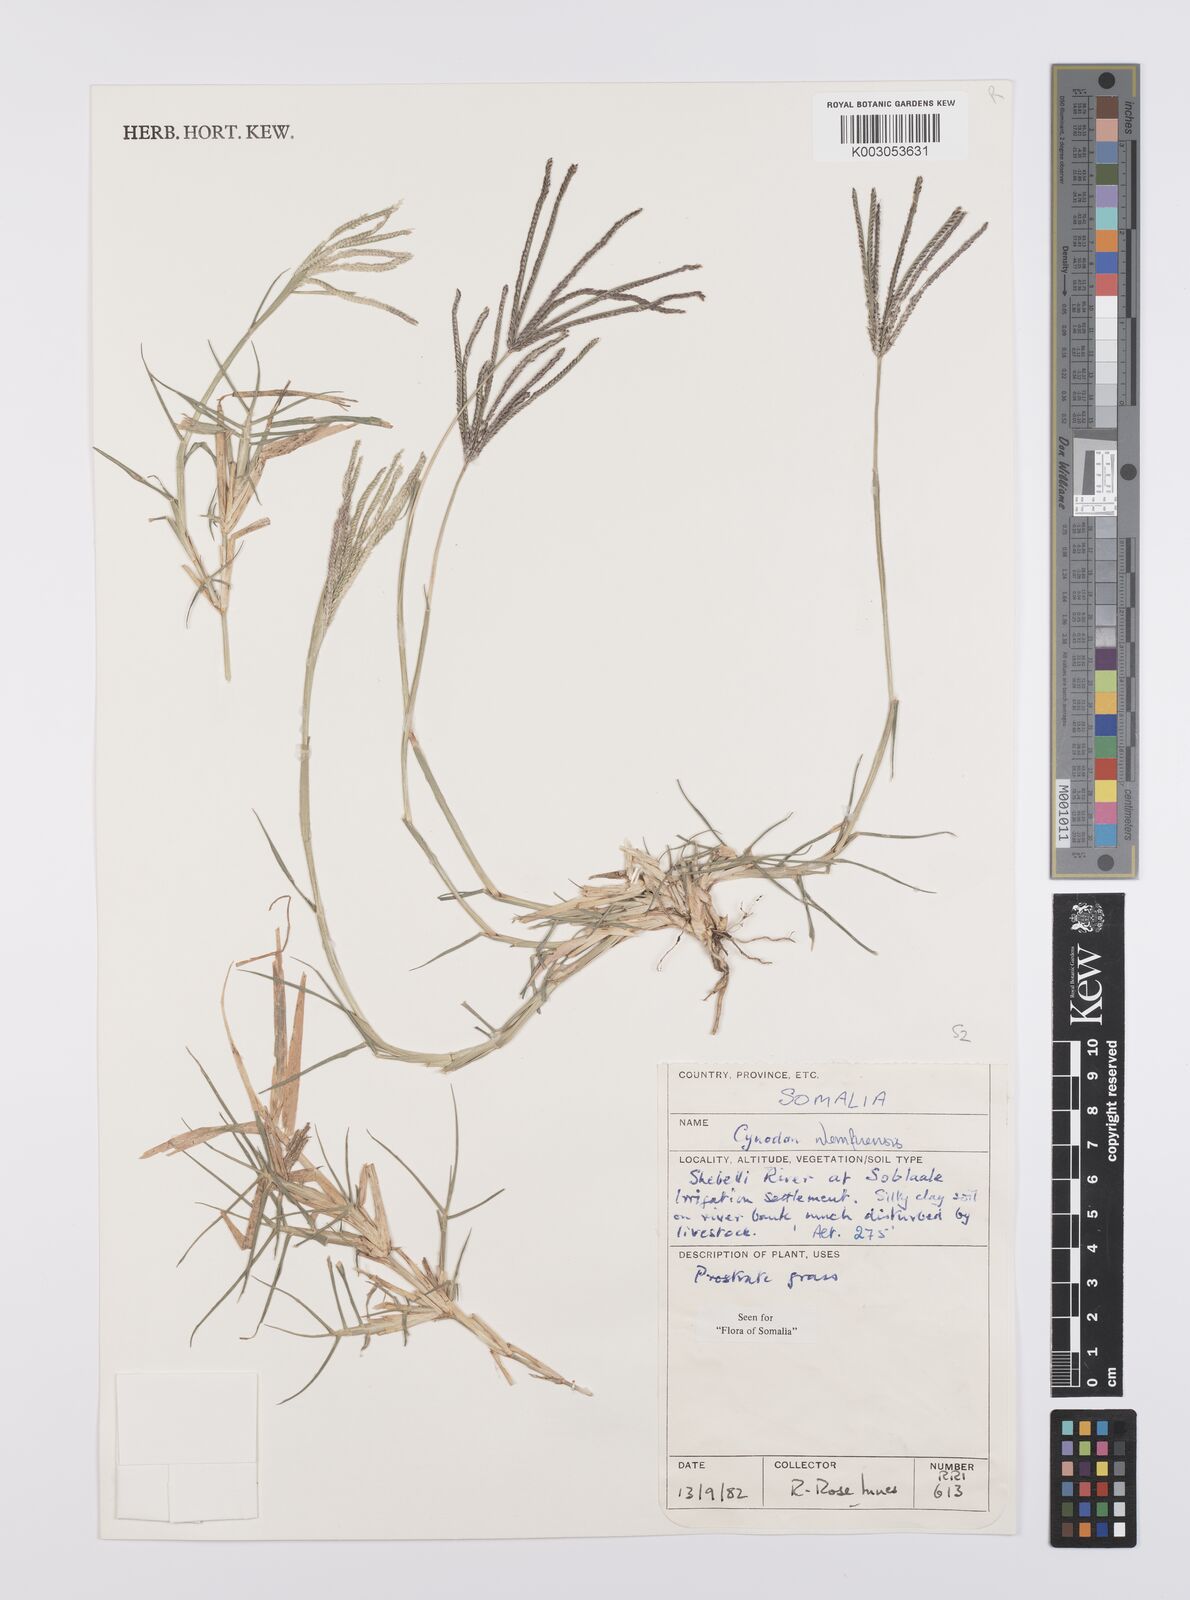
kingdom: Plantae
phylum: Tracheophyta
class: Liliopsida
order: Poales
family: Poaceae
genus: Cynodon
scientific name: Cynodon nlemfuensis
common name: African bermudagrass
